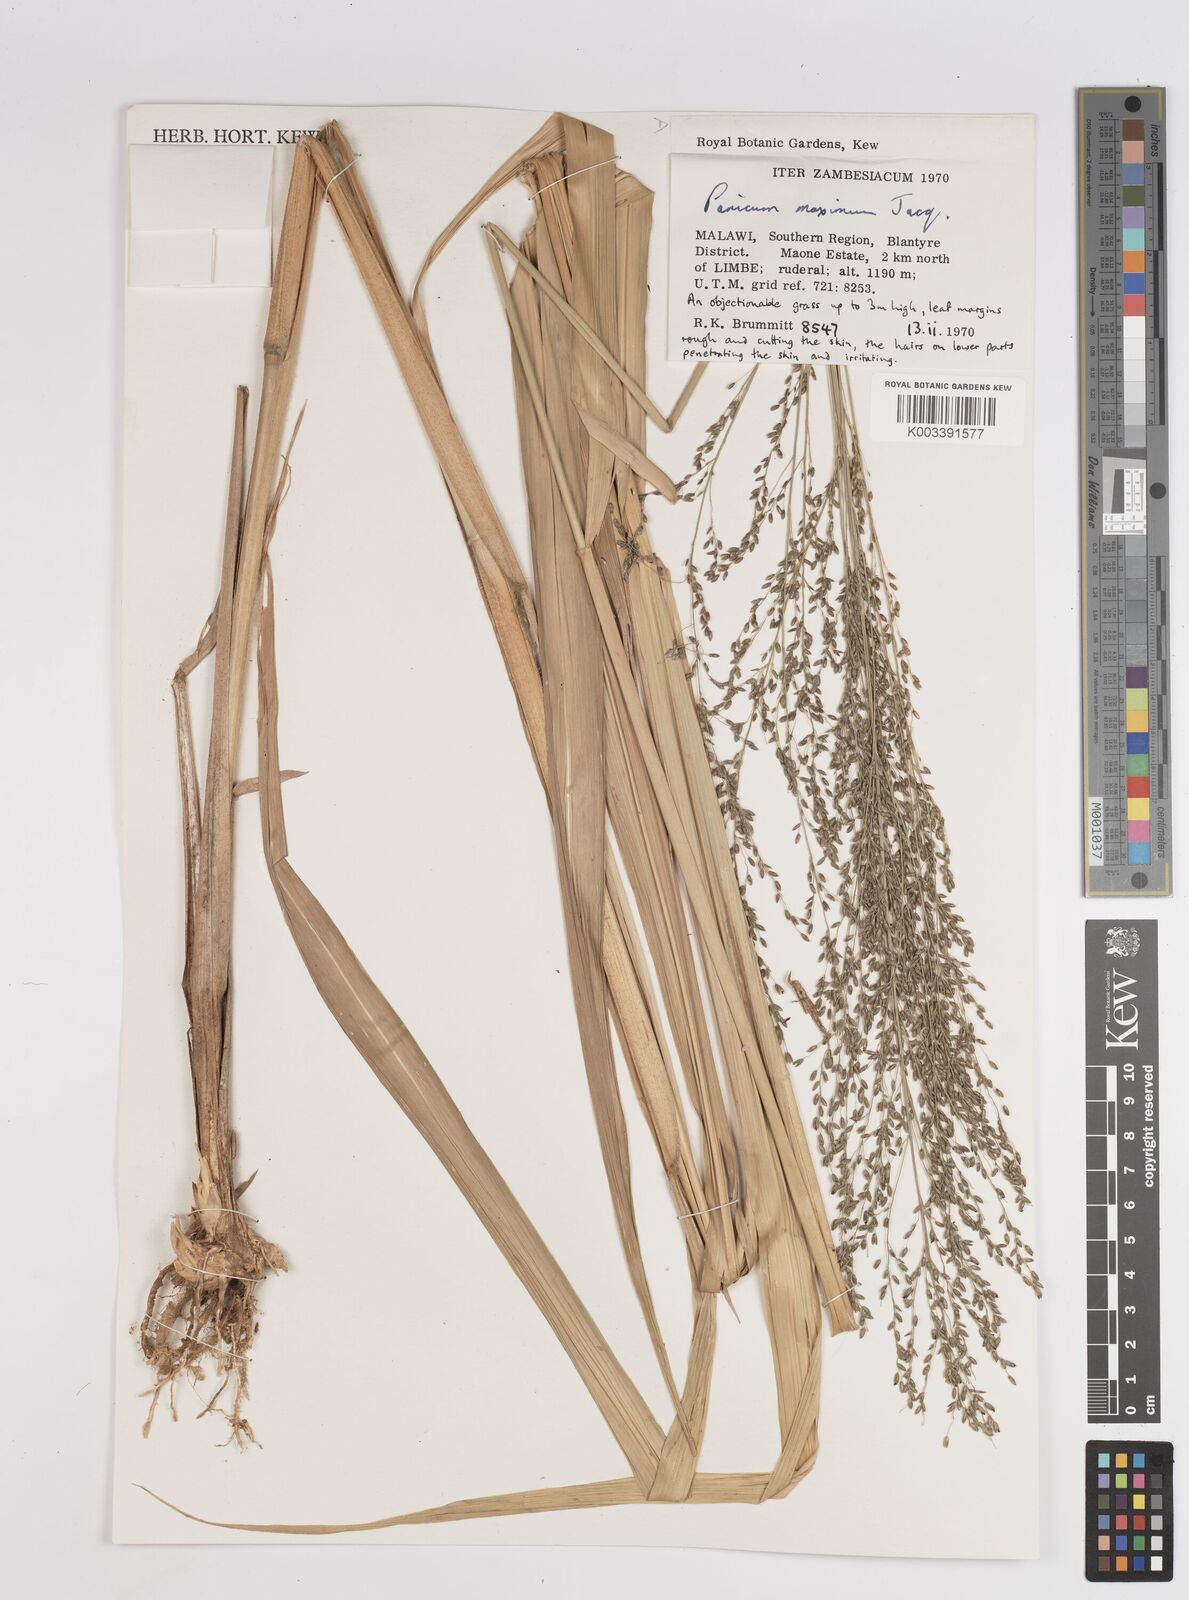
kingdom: Plantae
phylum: Tracheophyta
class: Liliopsida
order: Poales
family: Poaceae
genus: Megathyrsus
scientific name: Megathyrsus maximus
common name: Guineagrass
